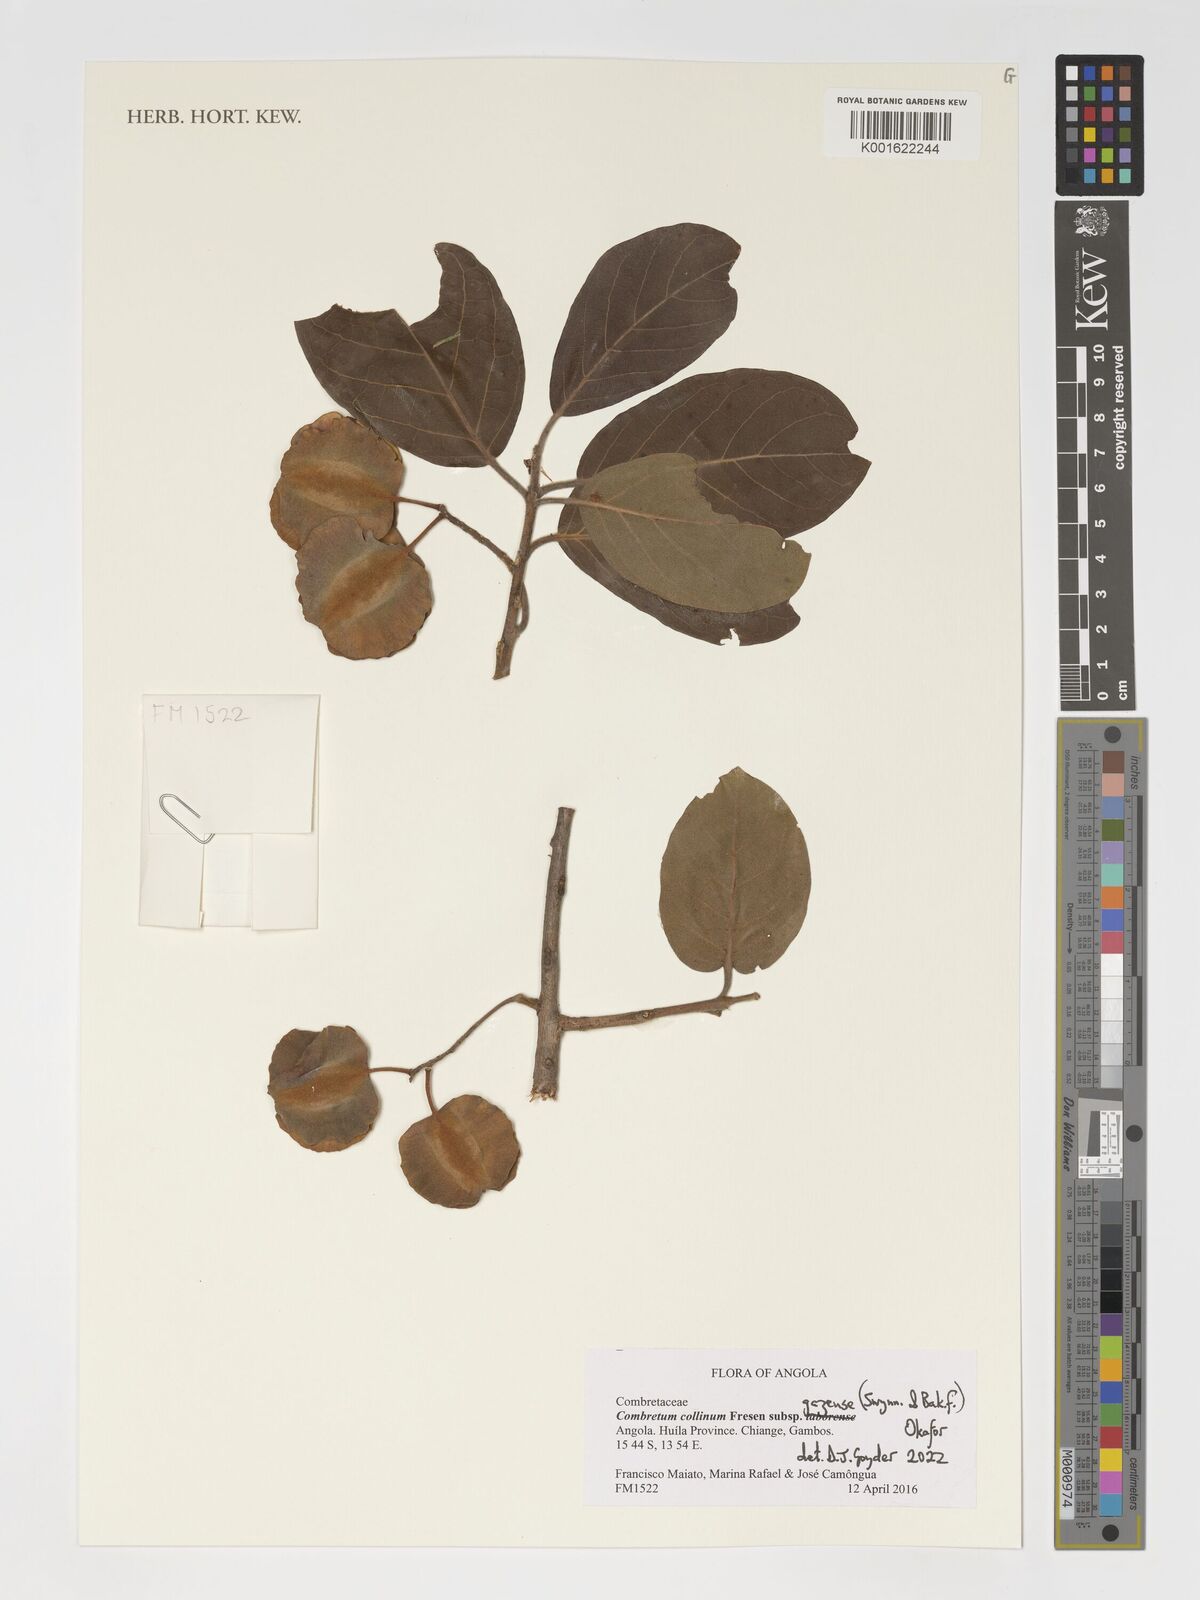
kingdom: Plantae
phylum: Tracheophyta
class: Magnoliopsida
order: Myrtales
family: Combretaceae
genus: Combretum
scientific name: Combretum collinum
